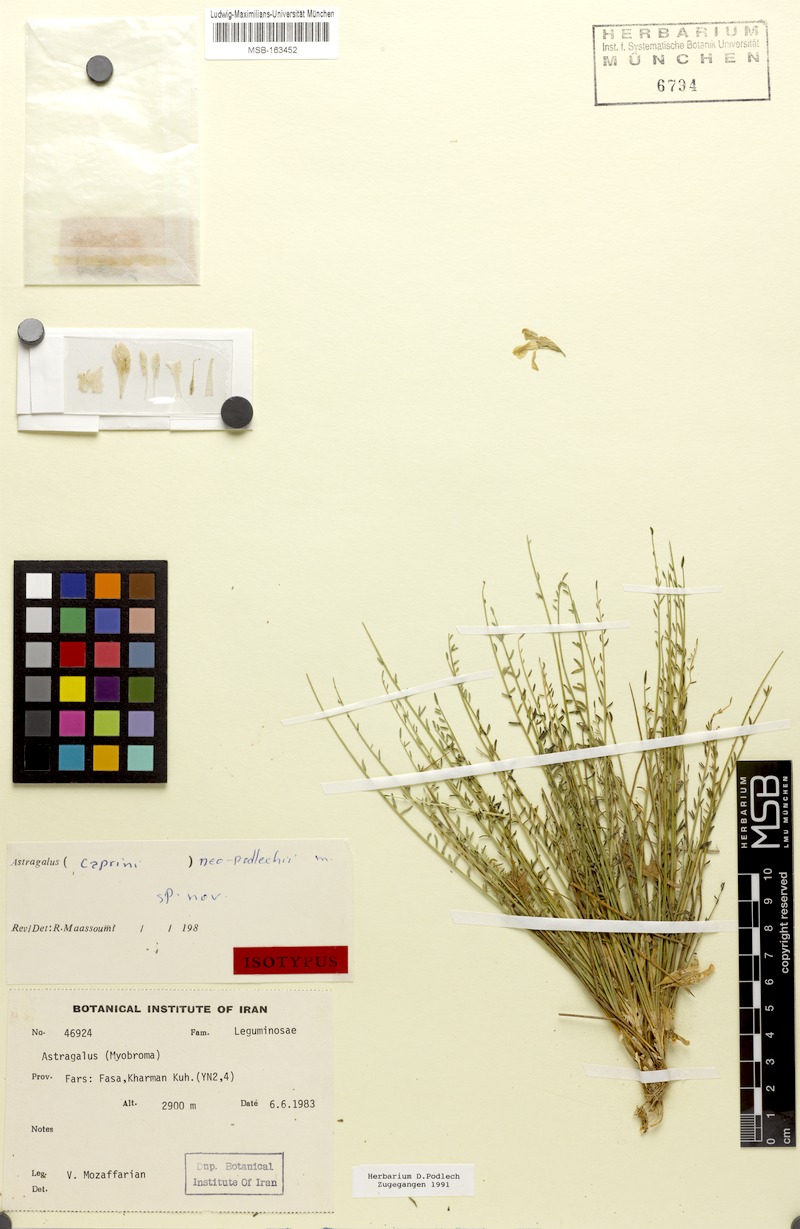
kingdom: Plantae
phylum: Tracheophyta
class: Magnoliopsida
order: Fabales
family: Fabaceae
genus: Astragalus
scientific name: Astragalus neopodlechii
